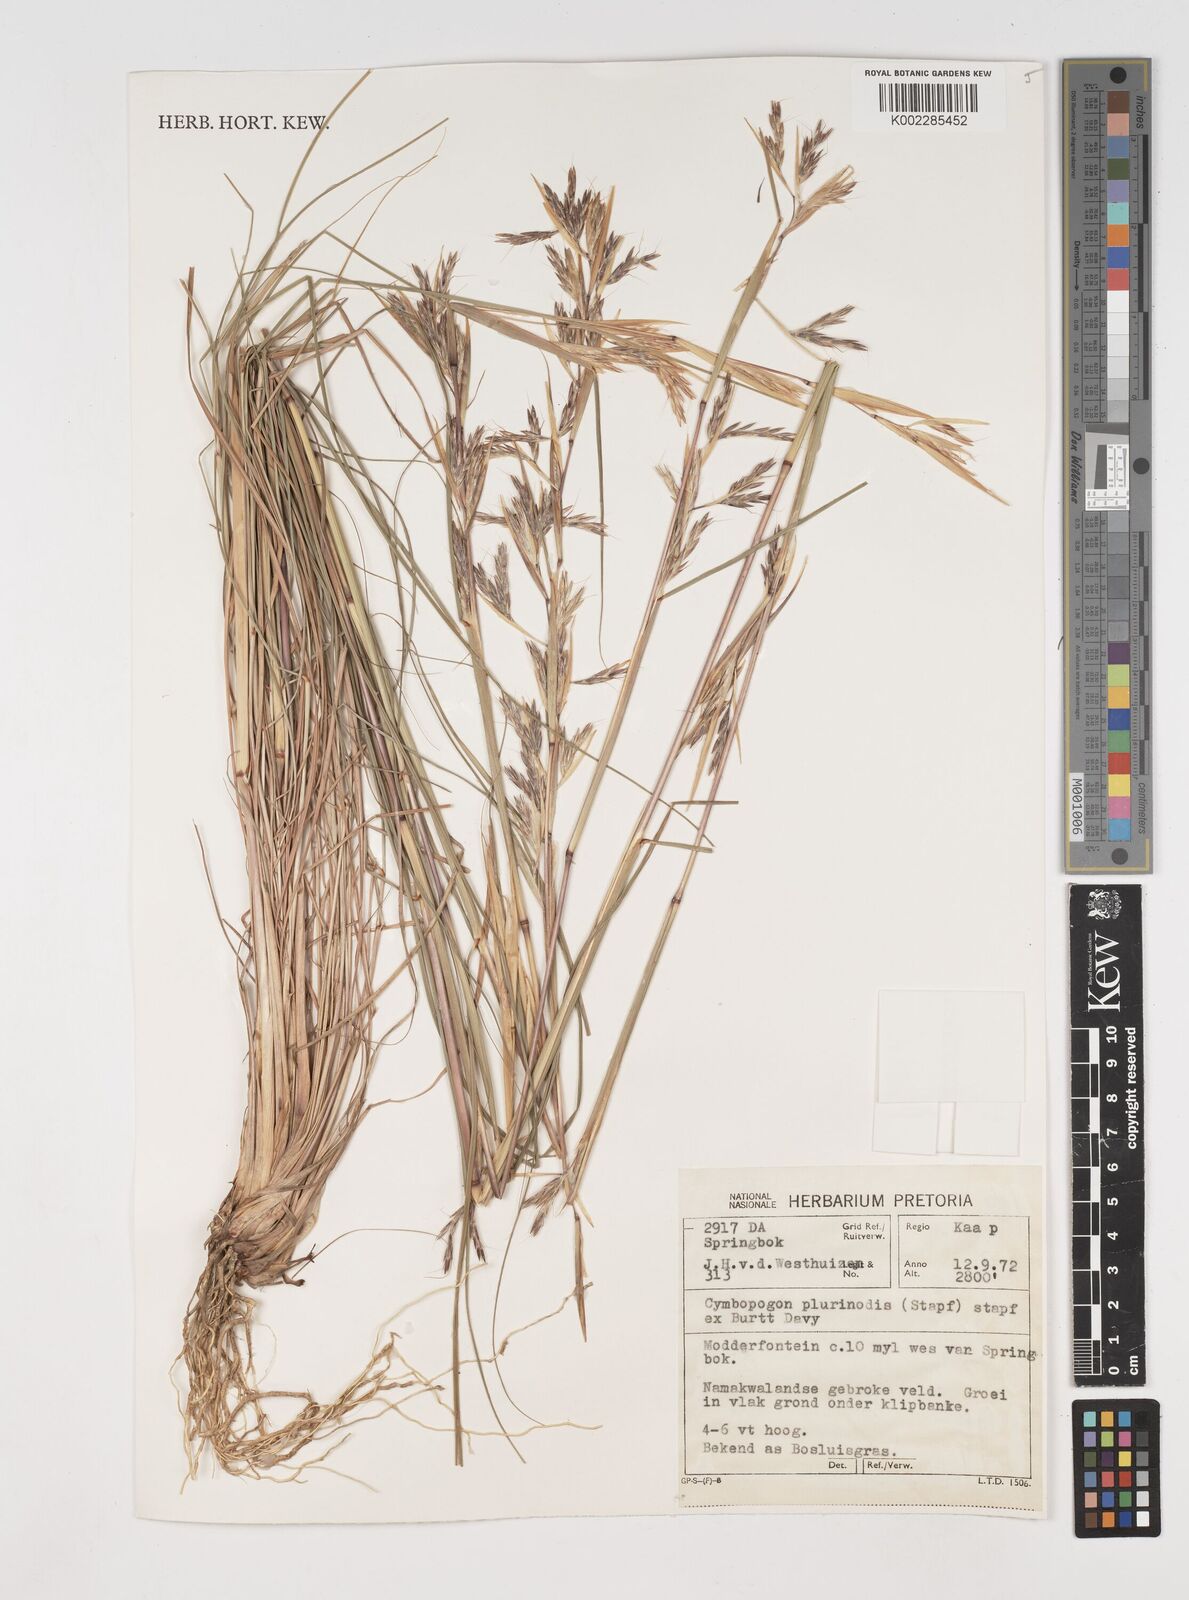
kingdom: Plantae
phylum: Tracheophyta
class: Liliopsida
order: Poales
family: Poaceae
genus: Cymbopogon
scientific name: Cymbopogon pospischilii
